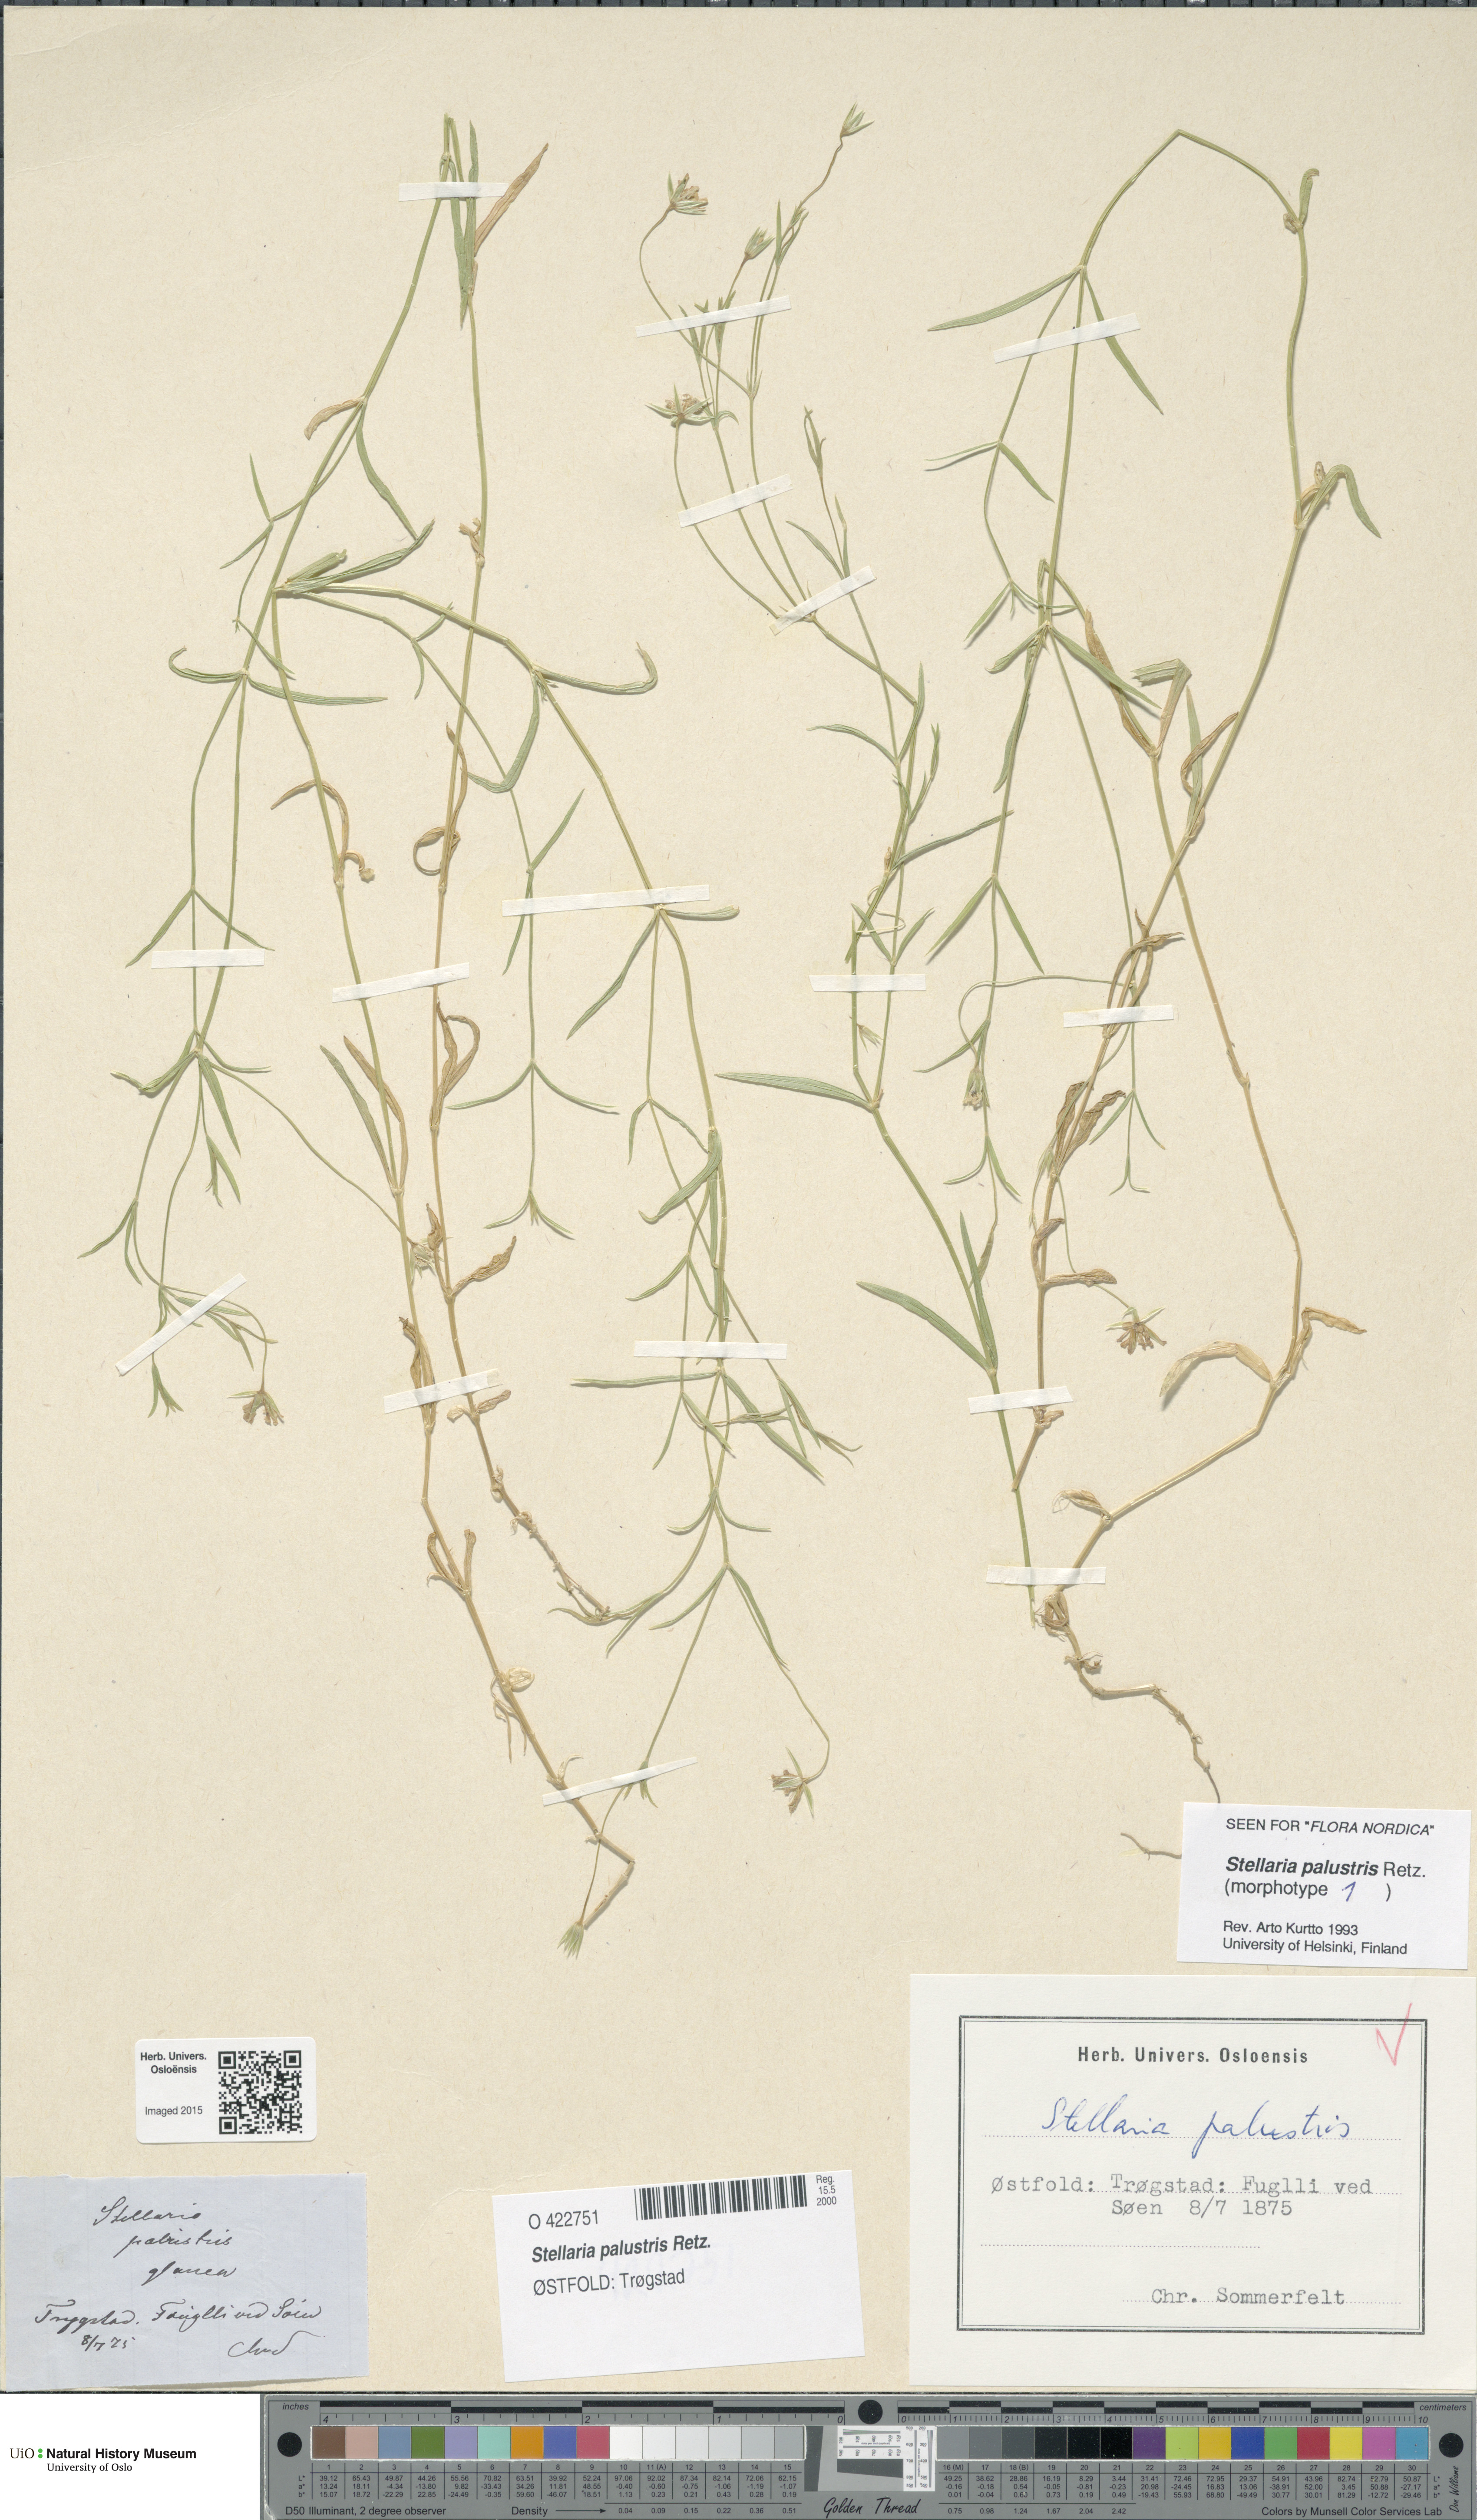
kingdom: Plantae
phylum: Tracheophyta
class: Magnoliopsida
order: Caryophyllales
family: Caryophyllaceae
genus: Stellaria
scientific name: Stellaria palustris
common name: Marsh stitchwort
